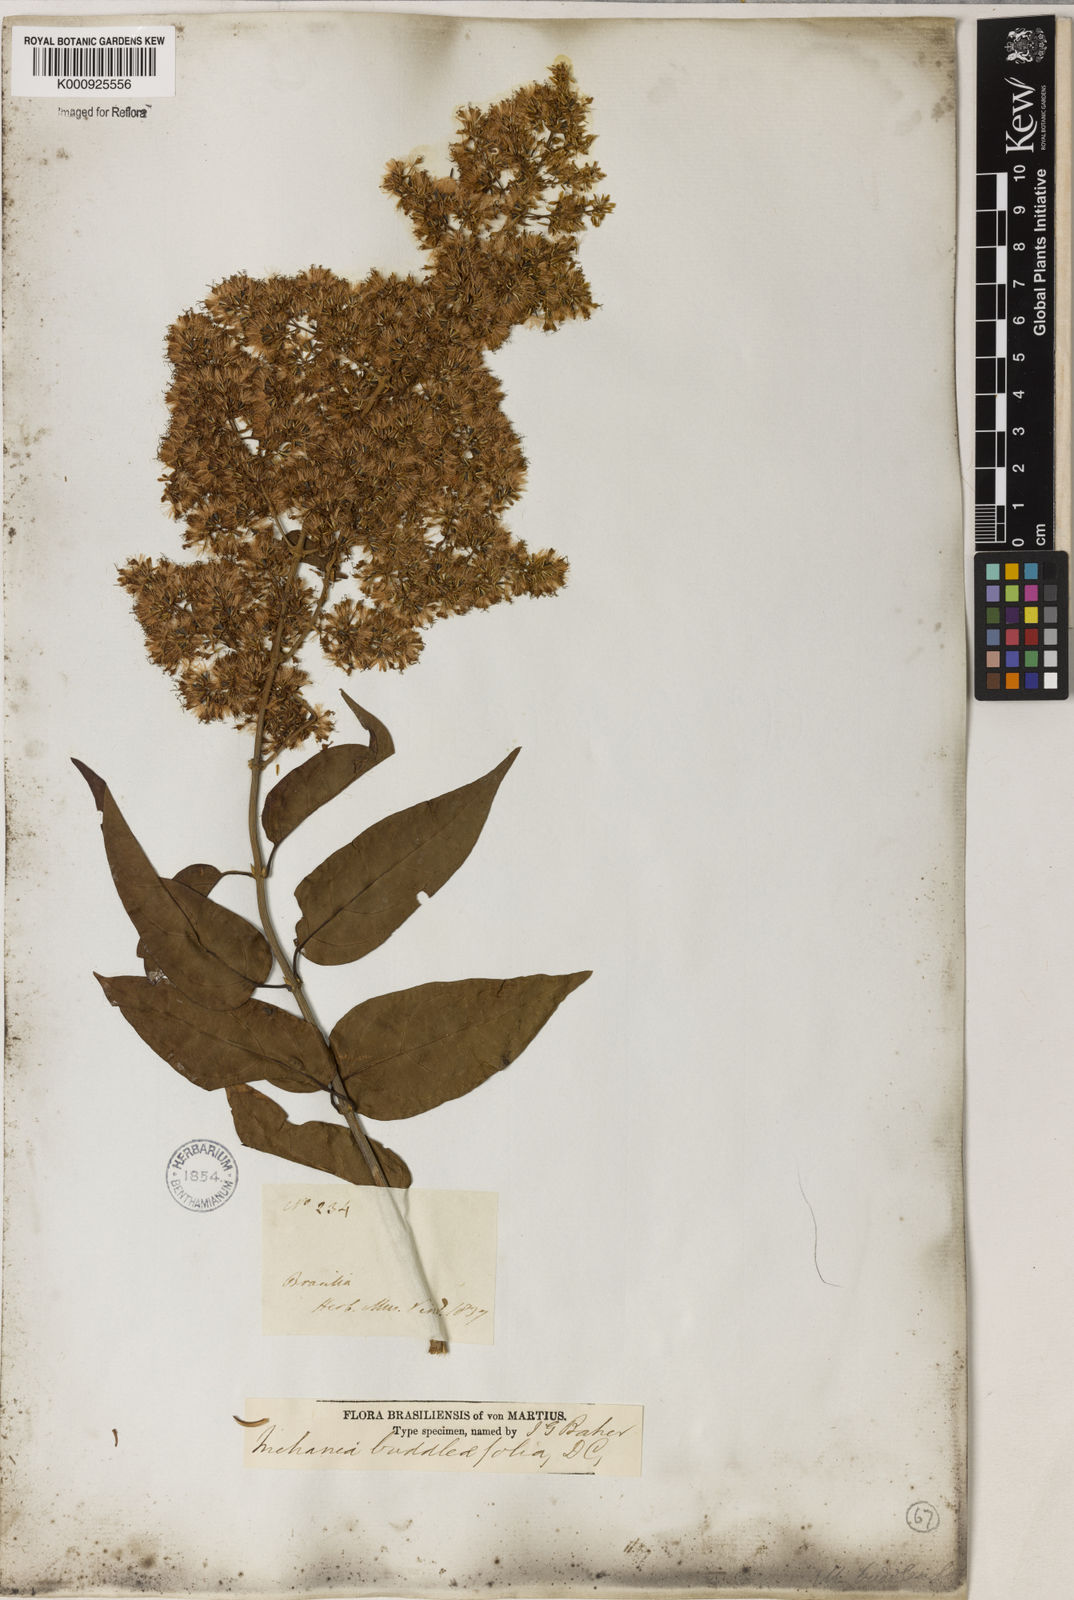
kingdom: Plantae
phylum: Tracheophyta
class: Magnoliopsida
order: Asterales
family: Asteraceae
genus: Mikania
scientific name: Mikania buddlejifolia
